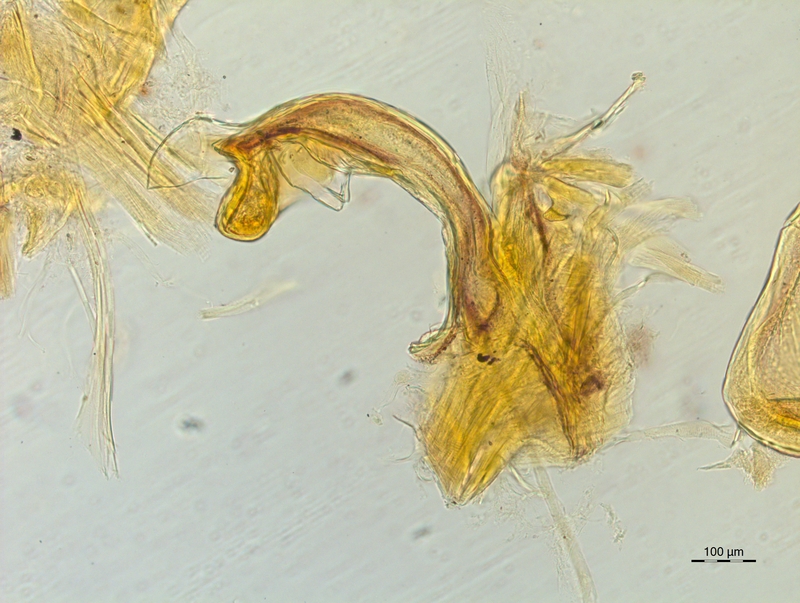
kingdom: Animalia
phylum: Arthropoda
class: Diplopoda
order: Chordeumatida
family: Craspedosomatidae
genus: Craspedosoma
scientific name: Craspedosoma rawlinsii
